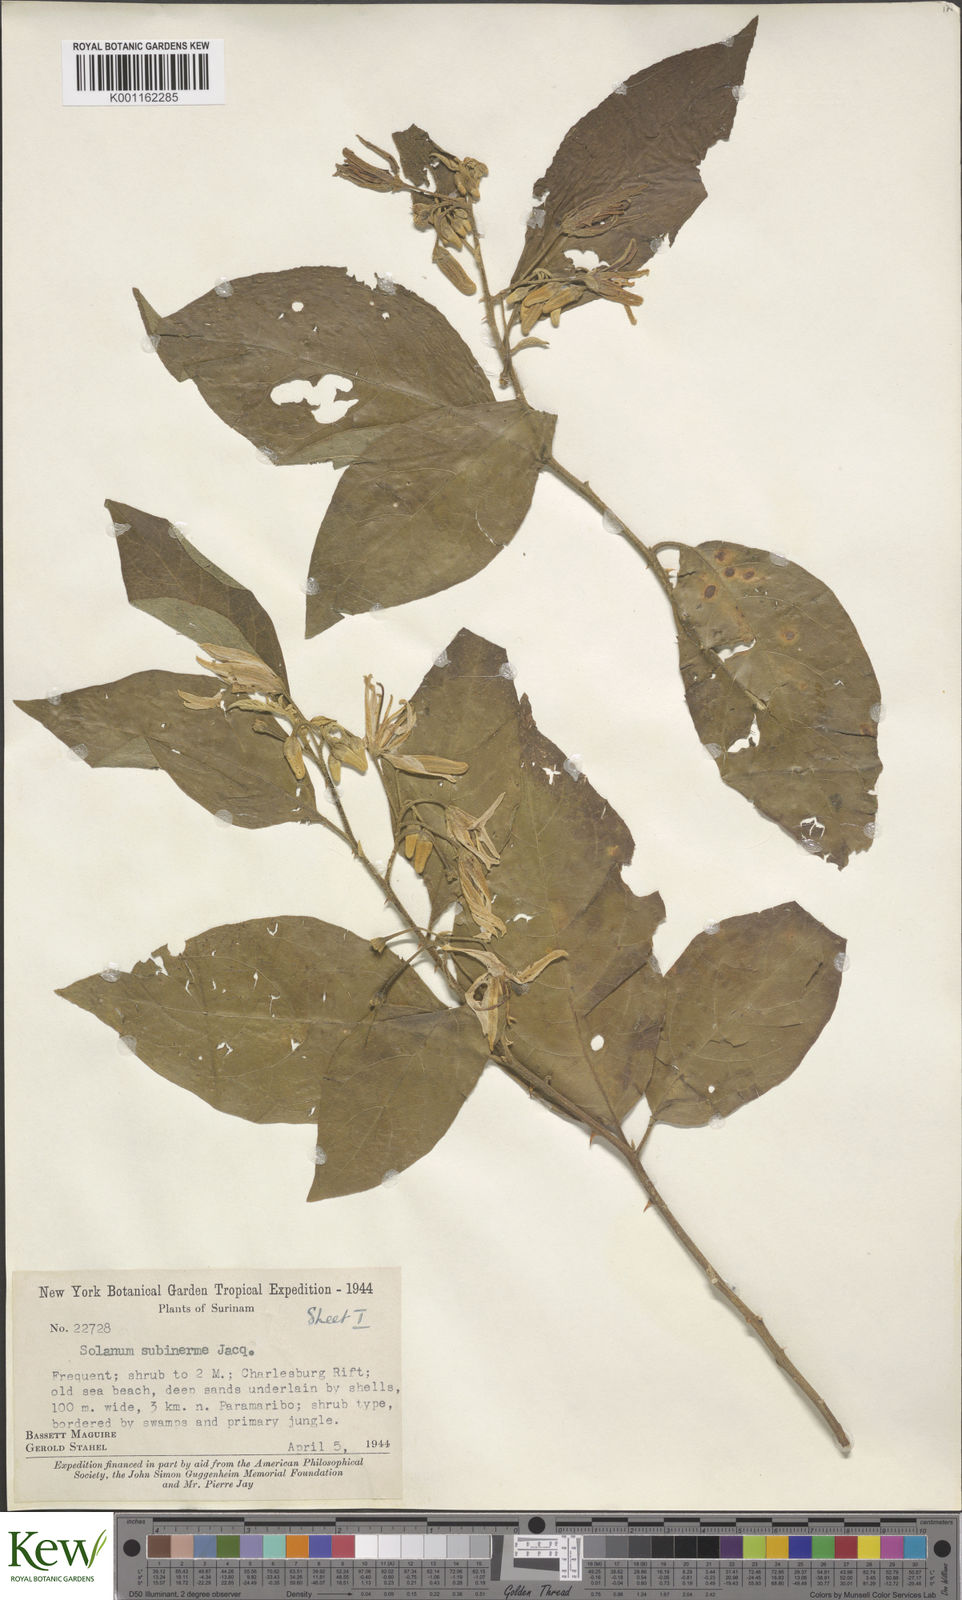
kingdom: Plantae
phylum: Tracheophyta
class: Magnoliopsida
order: Solanales
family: Solanaceae
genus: Solanum
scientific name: Solanum subinerme
